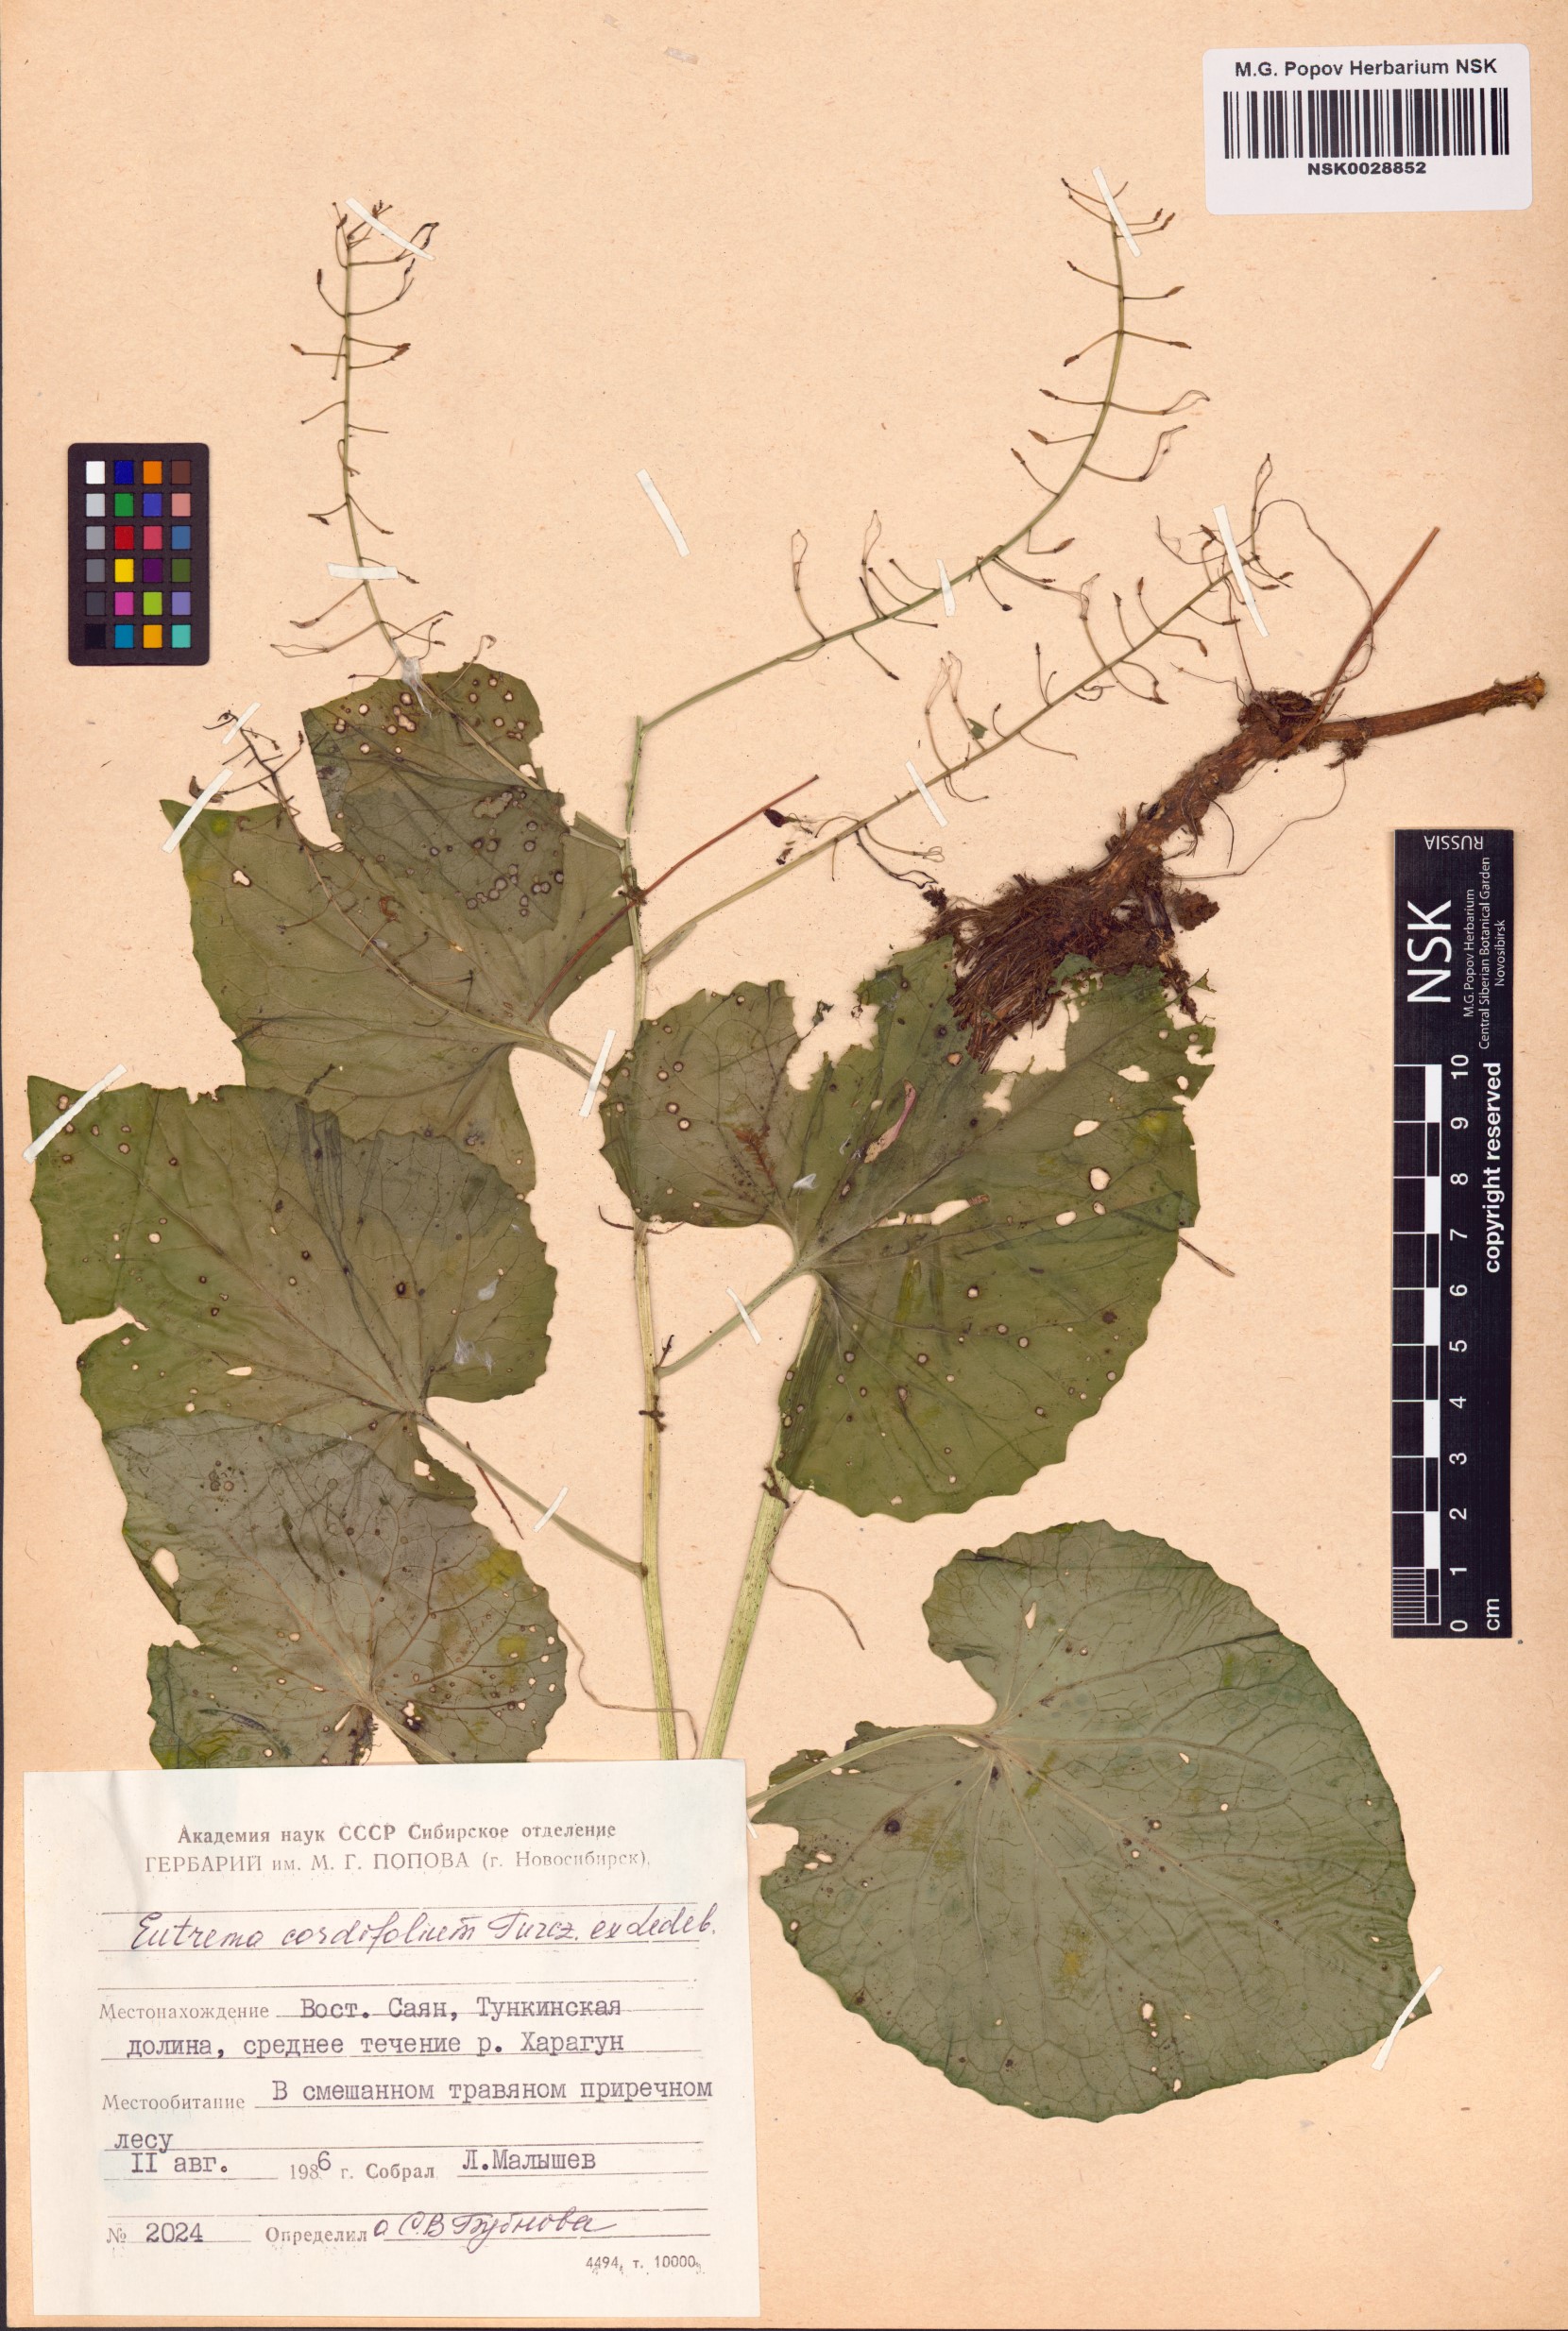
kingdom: Plantae
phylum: Tracheophyta
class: Magnoliopsida
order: Brassicales
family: Brassicaceae
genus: Eutrema
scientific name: Eutrema cordifolium
